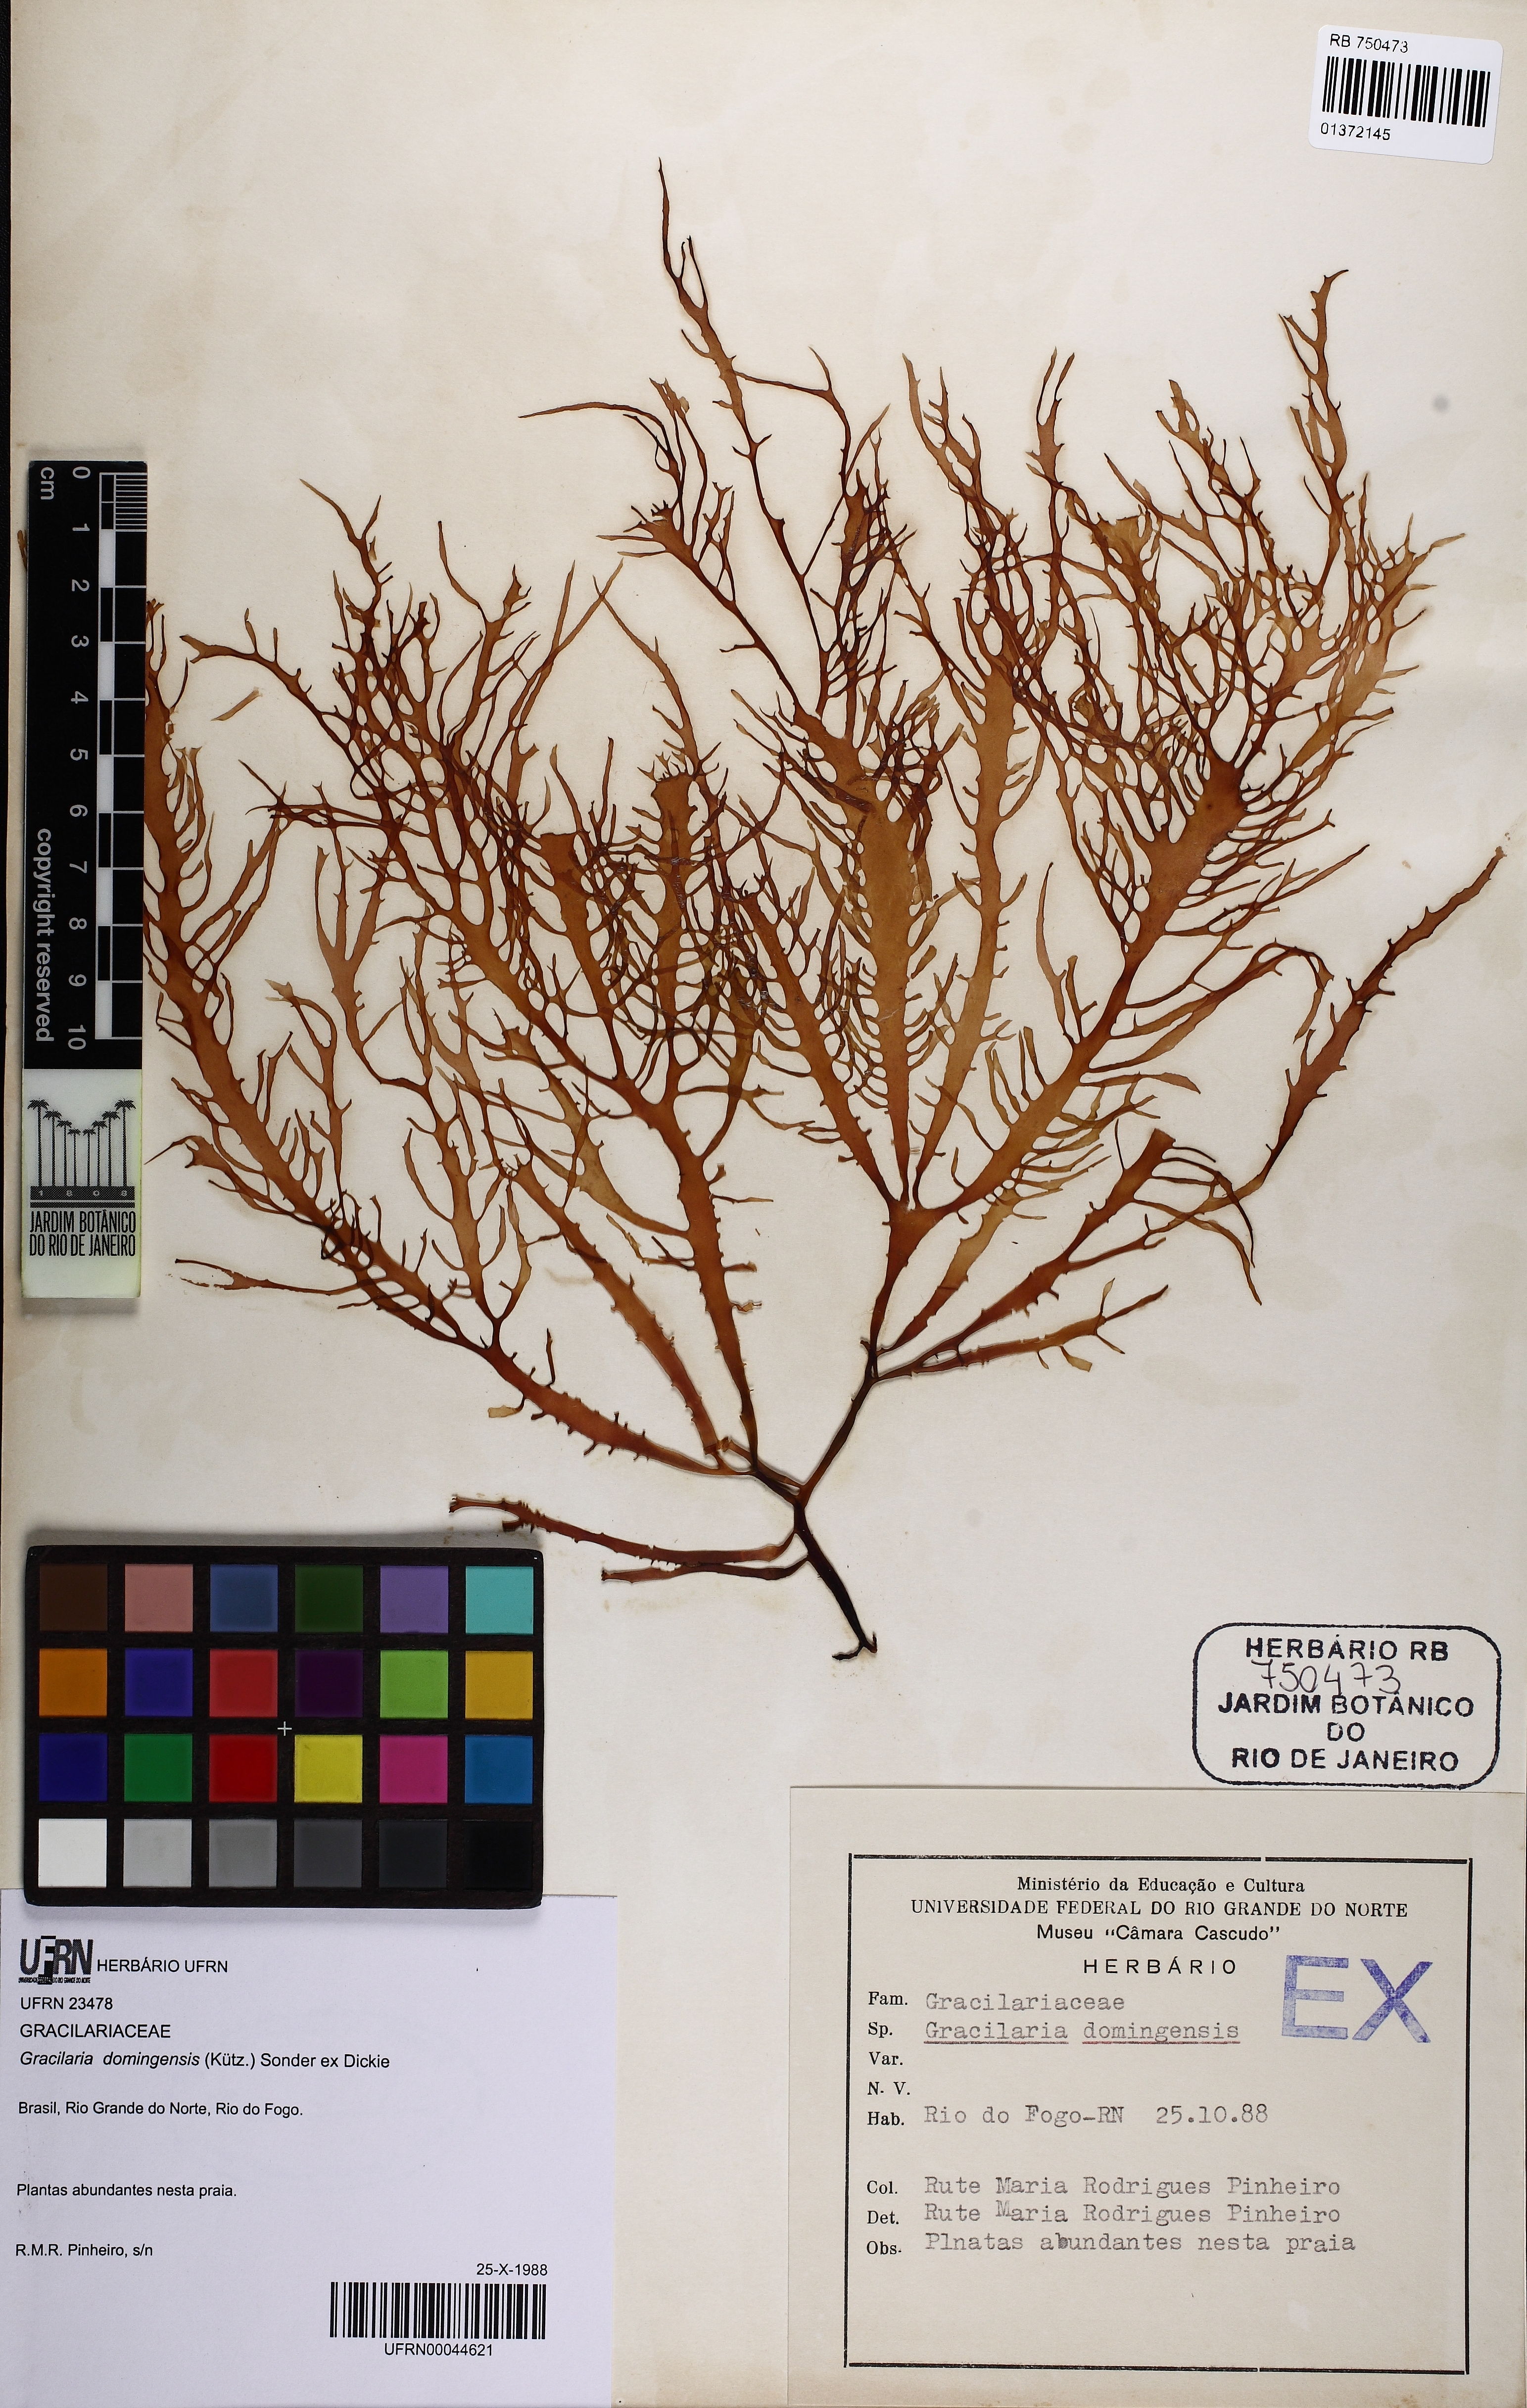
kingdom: Plantae
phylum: Rhodophyta
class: Florideophyceae
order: Gracilariales
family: Gracilariaceae
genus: Gracilaria
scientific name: Gracilaria domingensis
